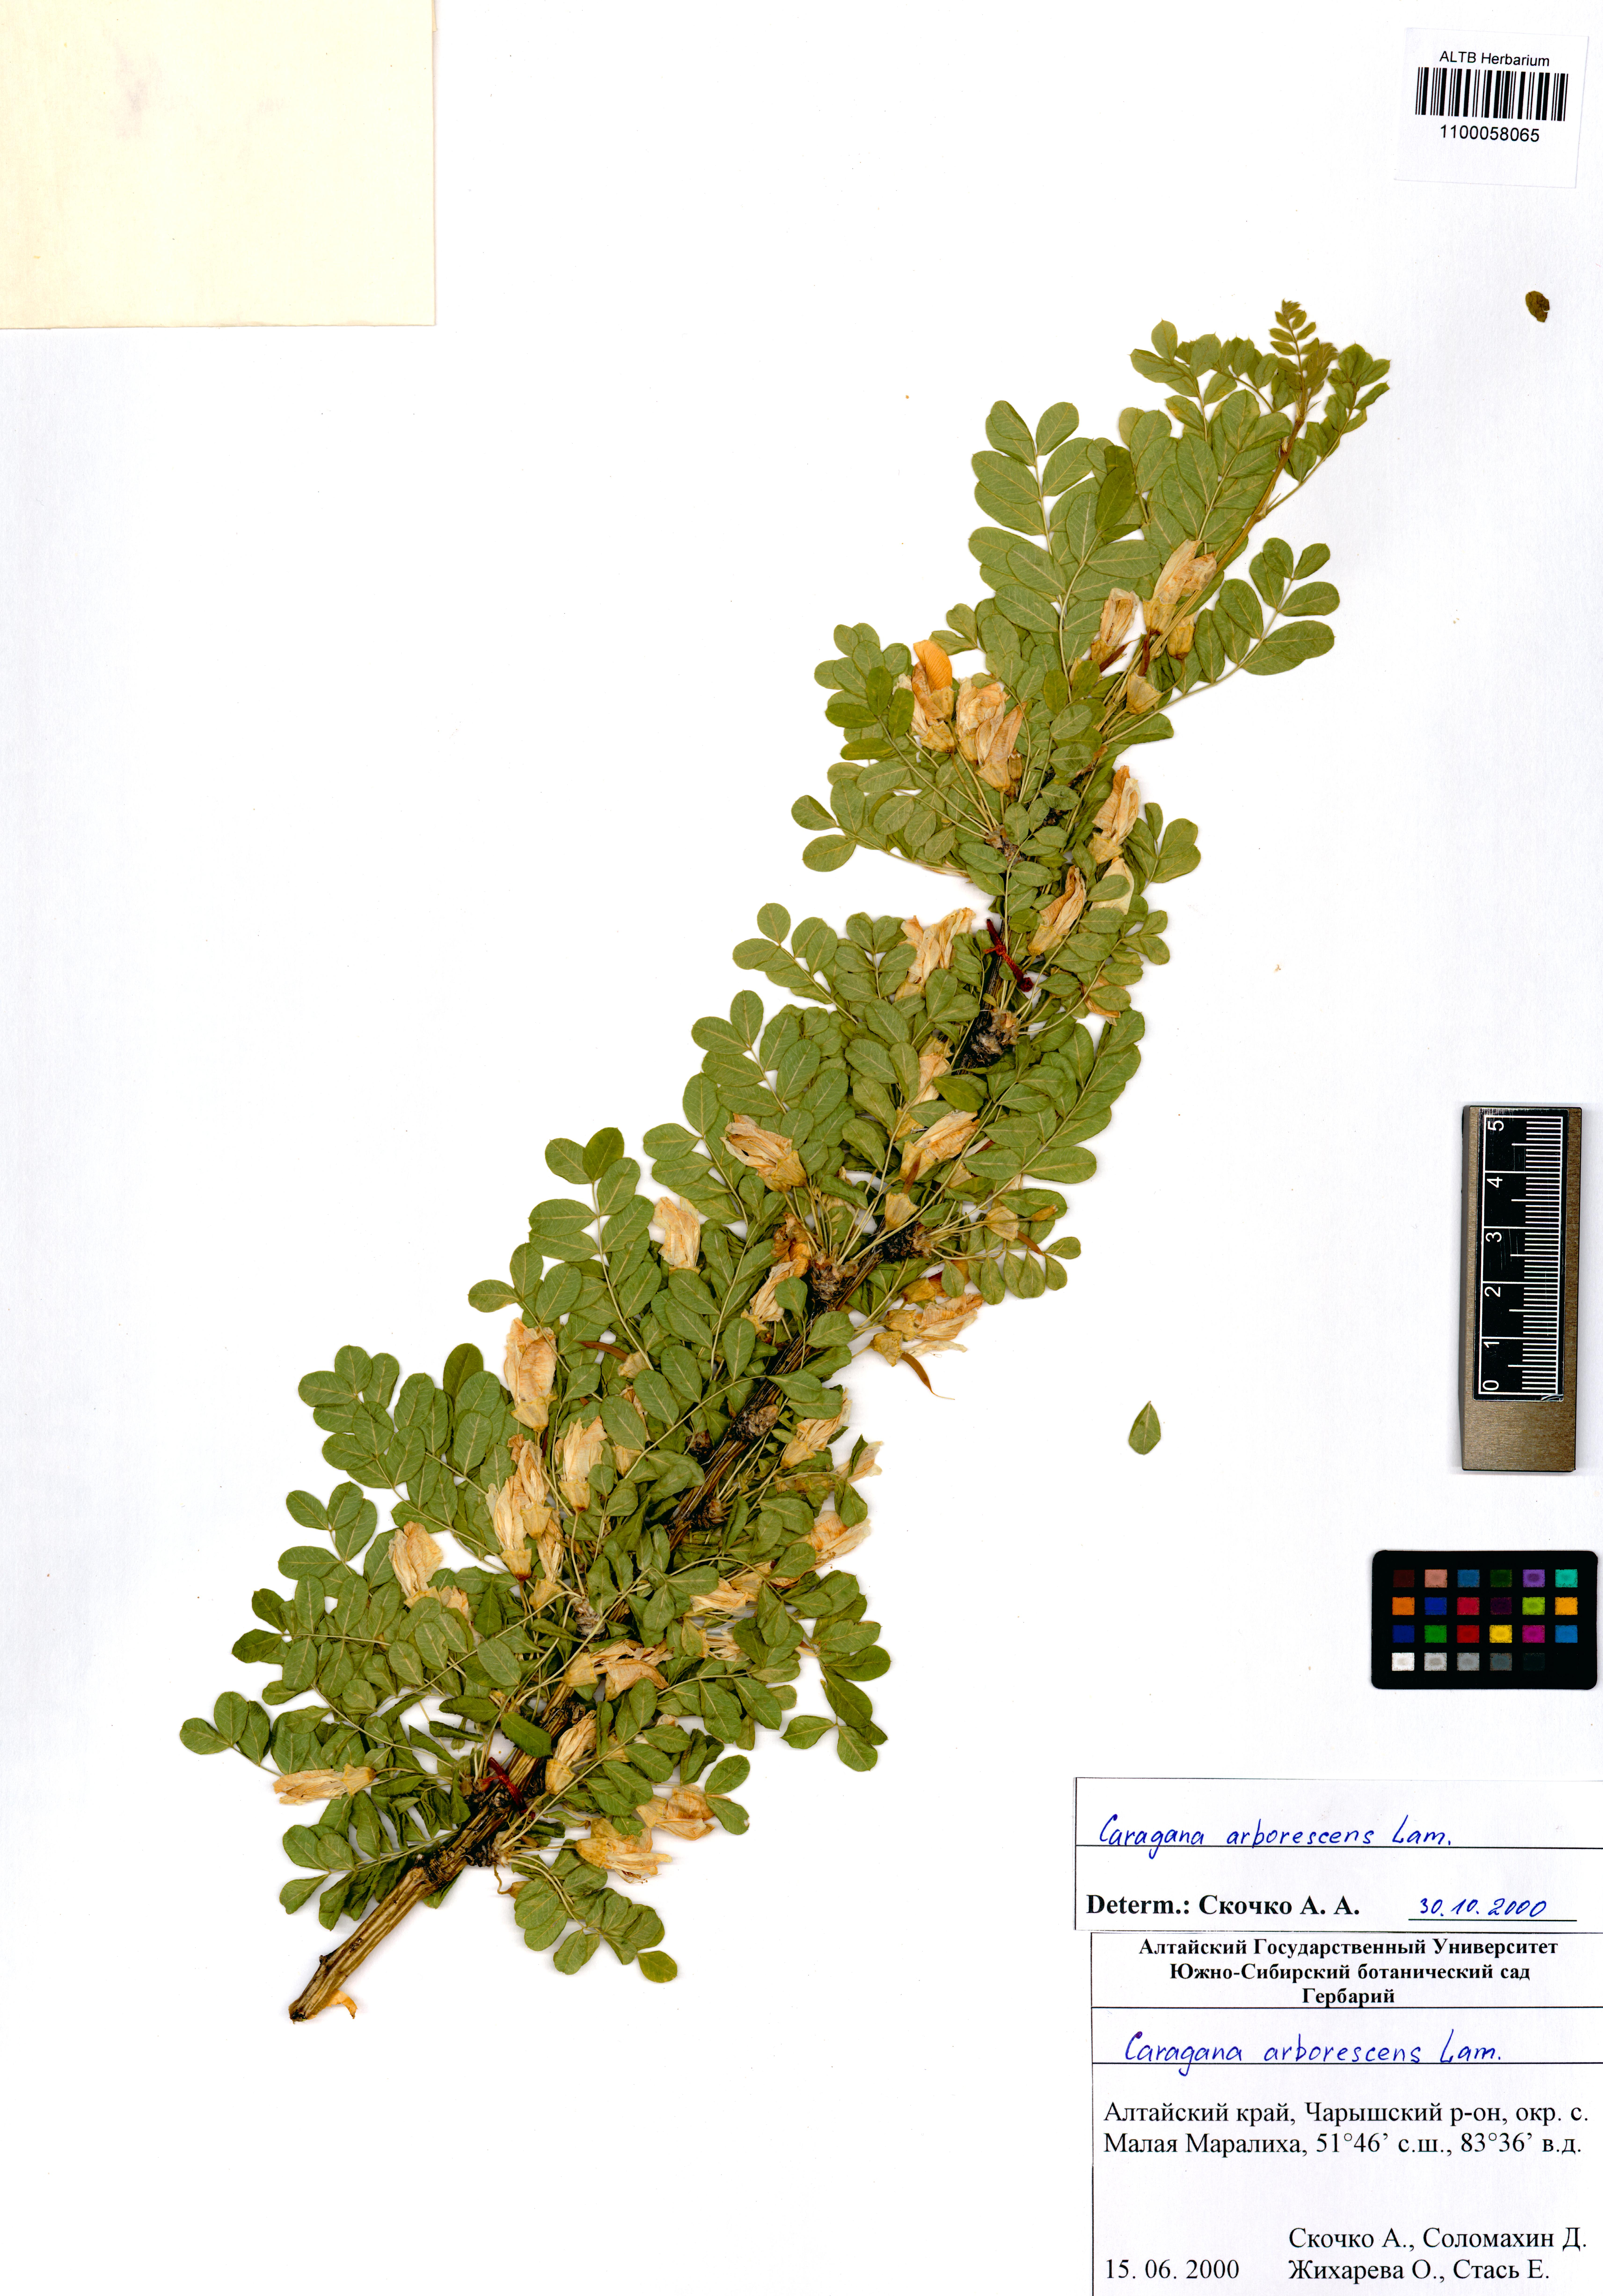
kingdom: Plantae
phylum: Tracheophyta
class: Magnoliopsida
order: Fabales
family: Fabaceae
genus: Caragana
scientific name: Caragana arborescens
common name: Siberian peashrub
